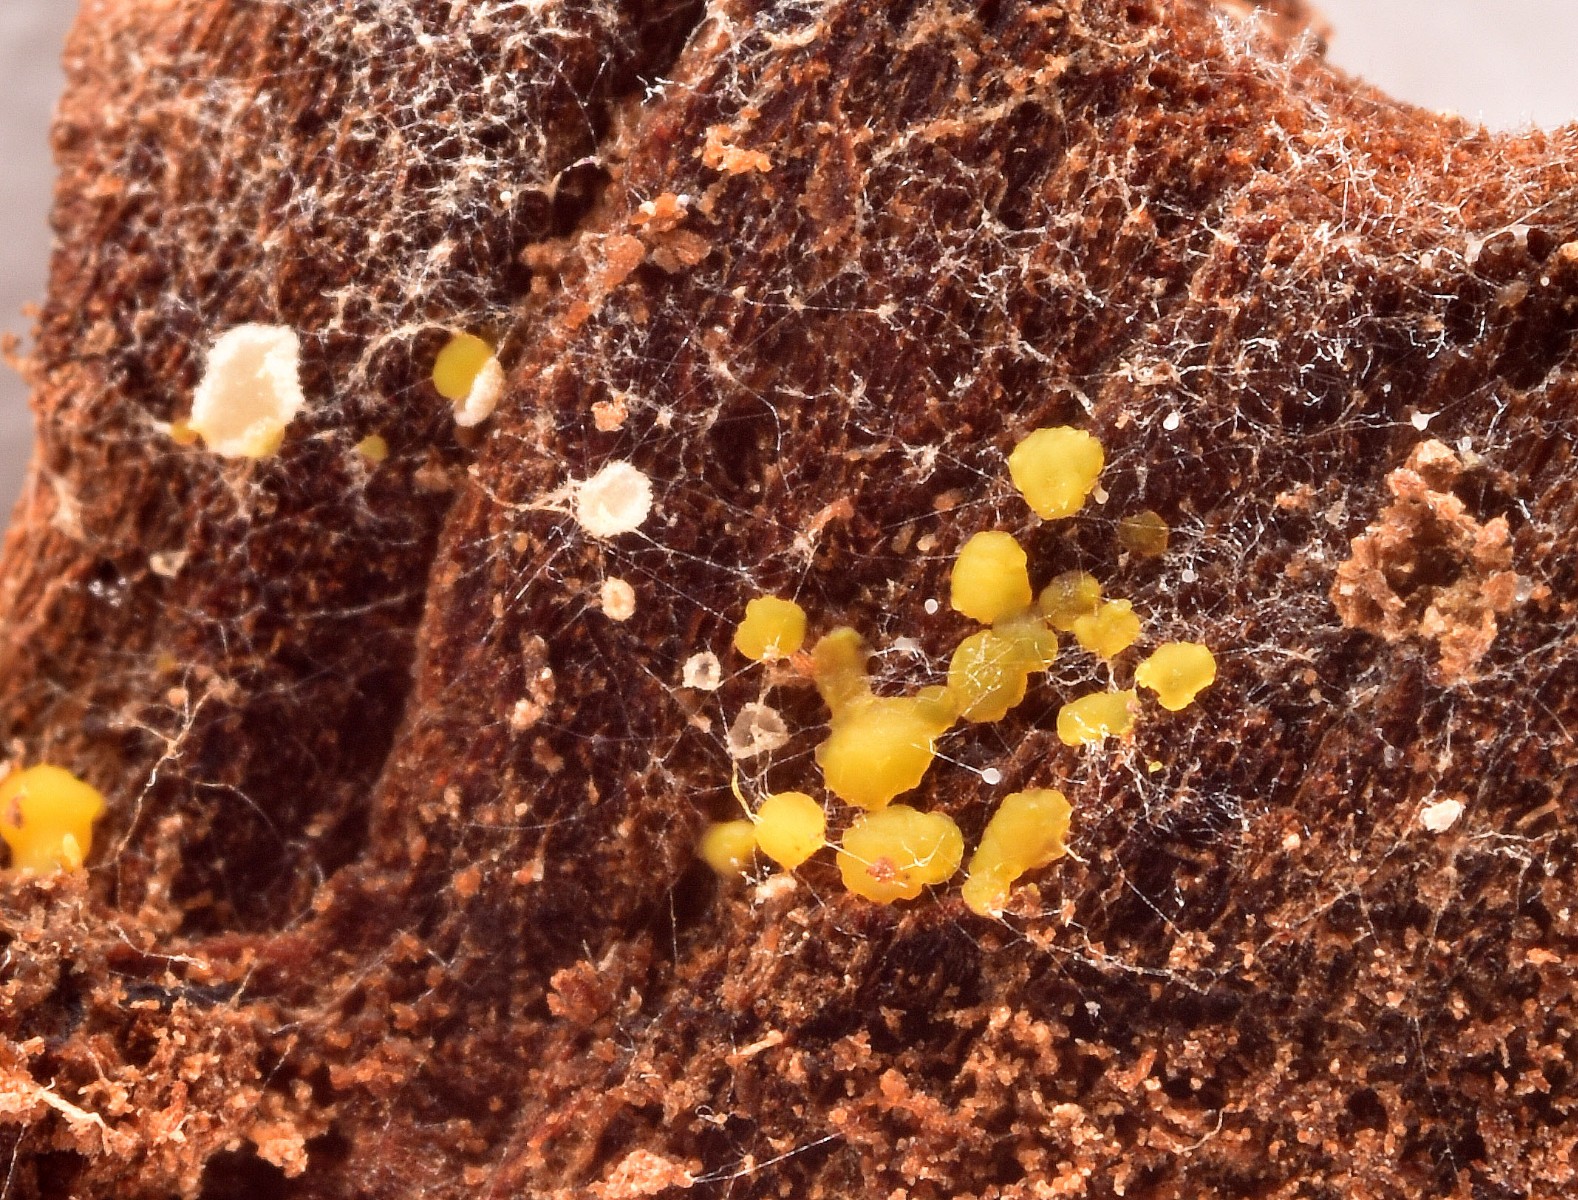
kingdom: Fungi
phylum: Ascomycota
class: Leotiomycetes
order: Helotiales
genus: Lemalis
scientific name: Lemalis aurea
